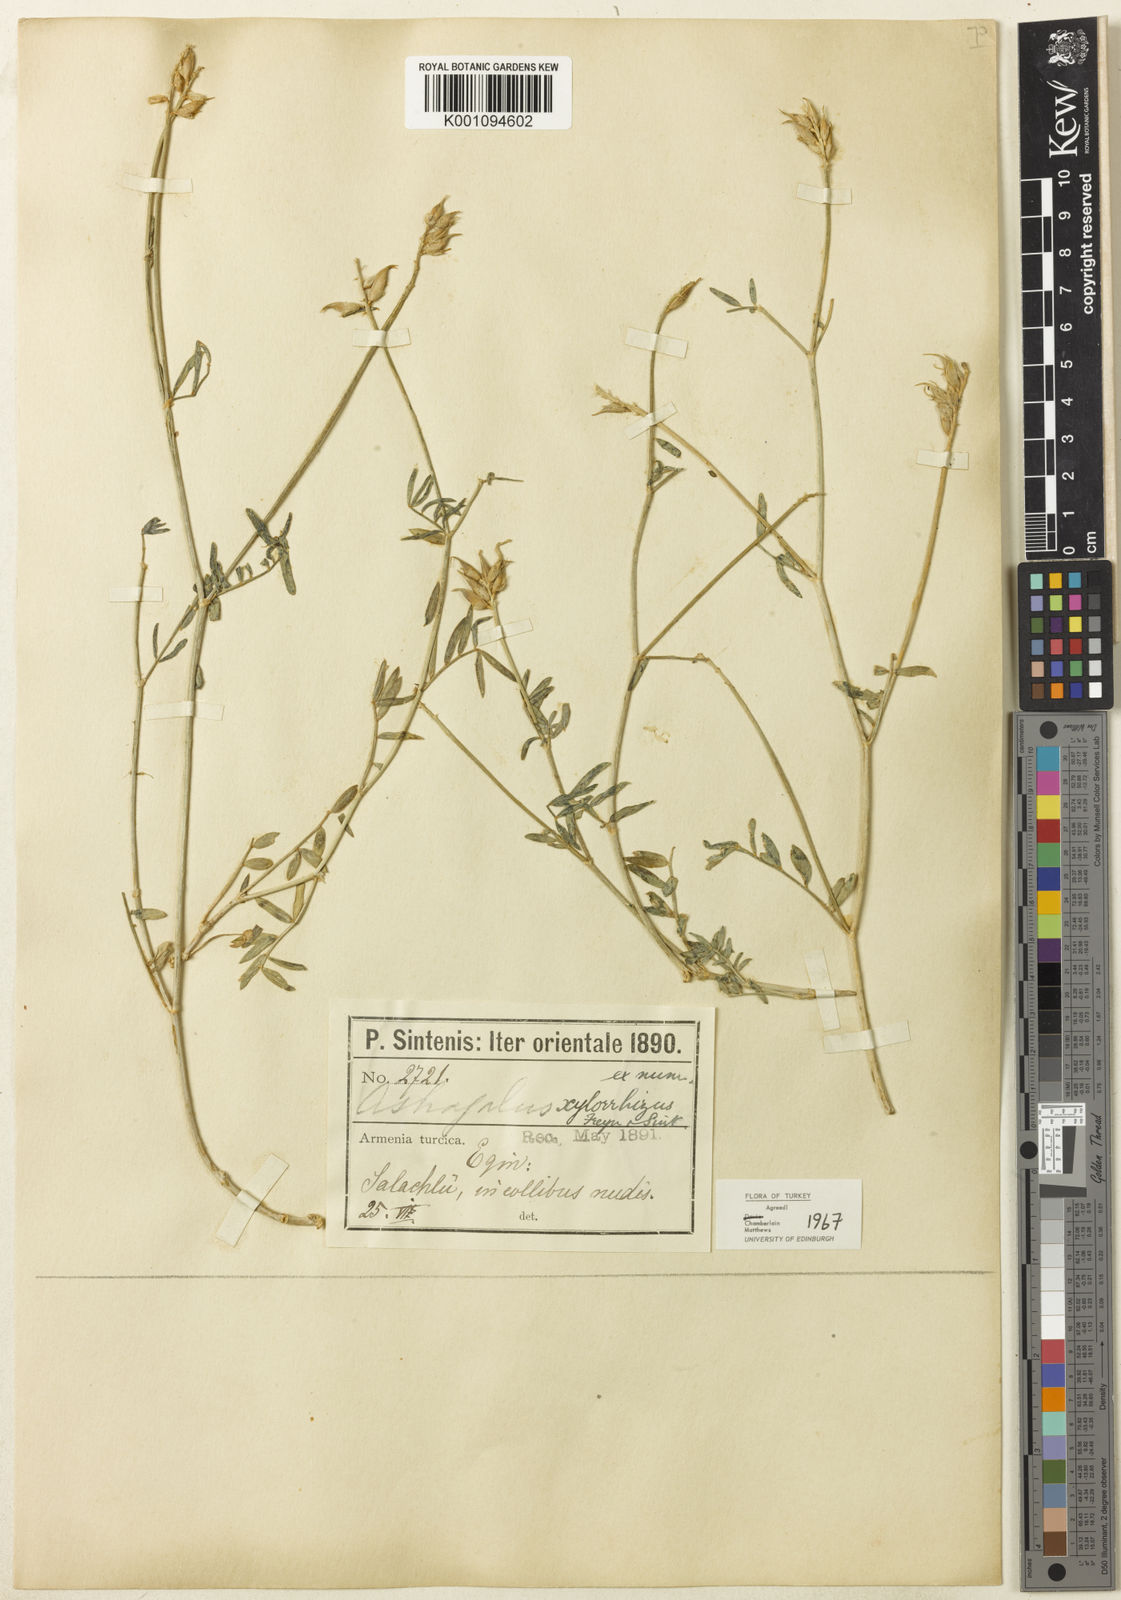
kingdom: Plantae
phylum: Tracheophyta
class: Magnoliopsida
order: Fabales
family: Fabaceae
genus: Astragalus
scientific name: Astragalus
